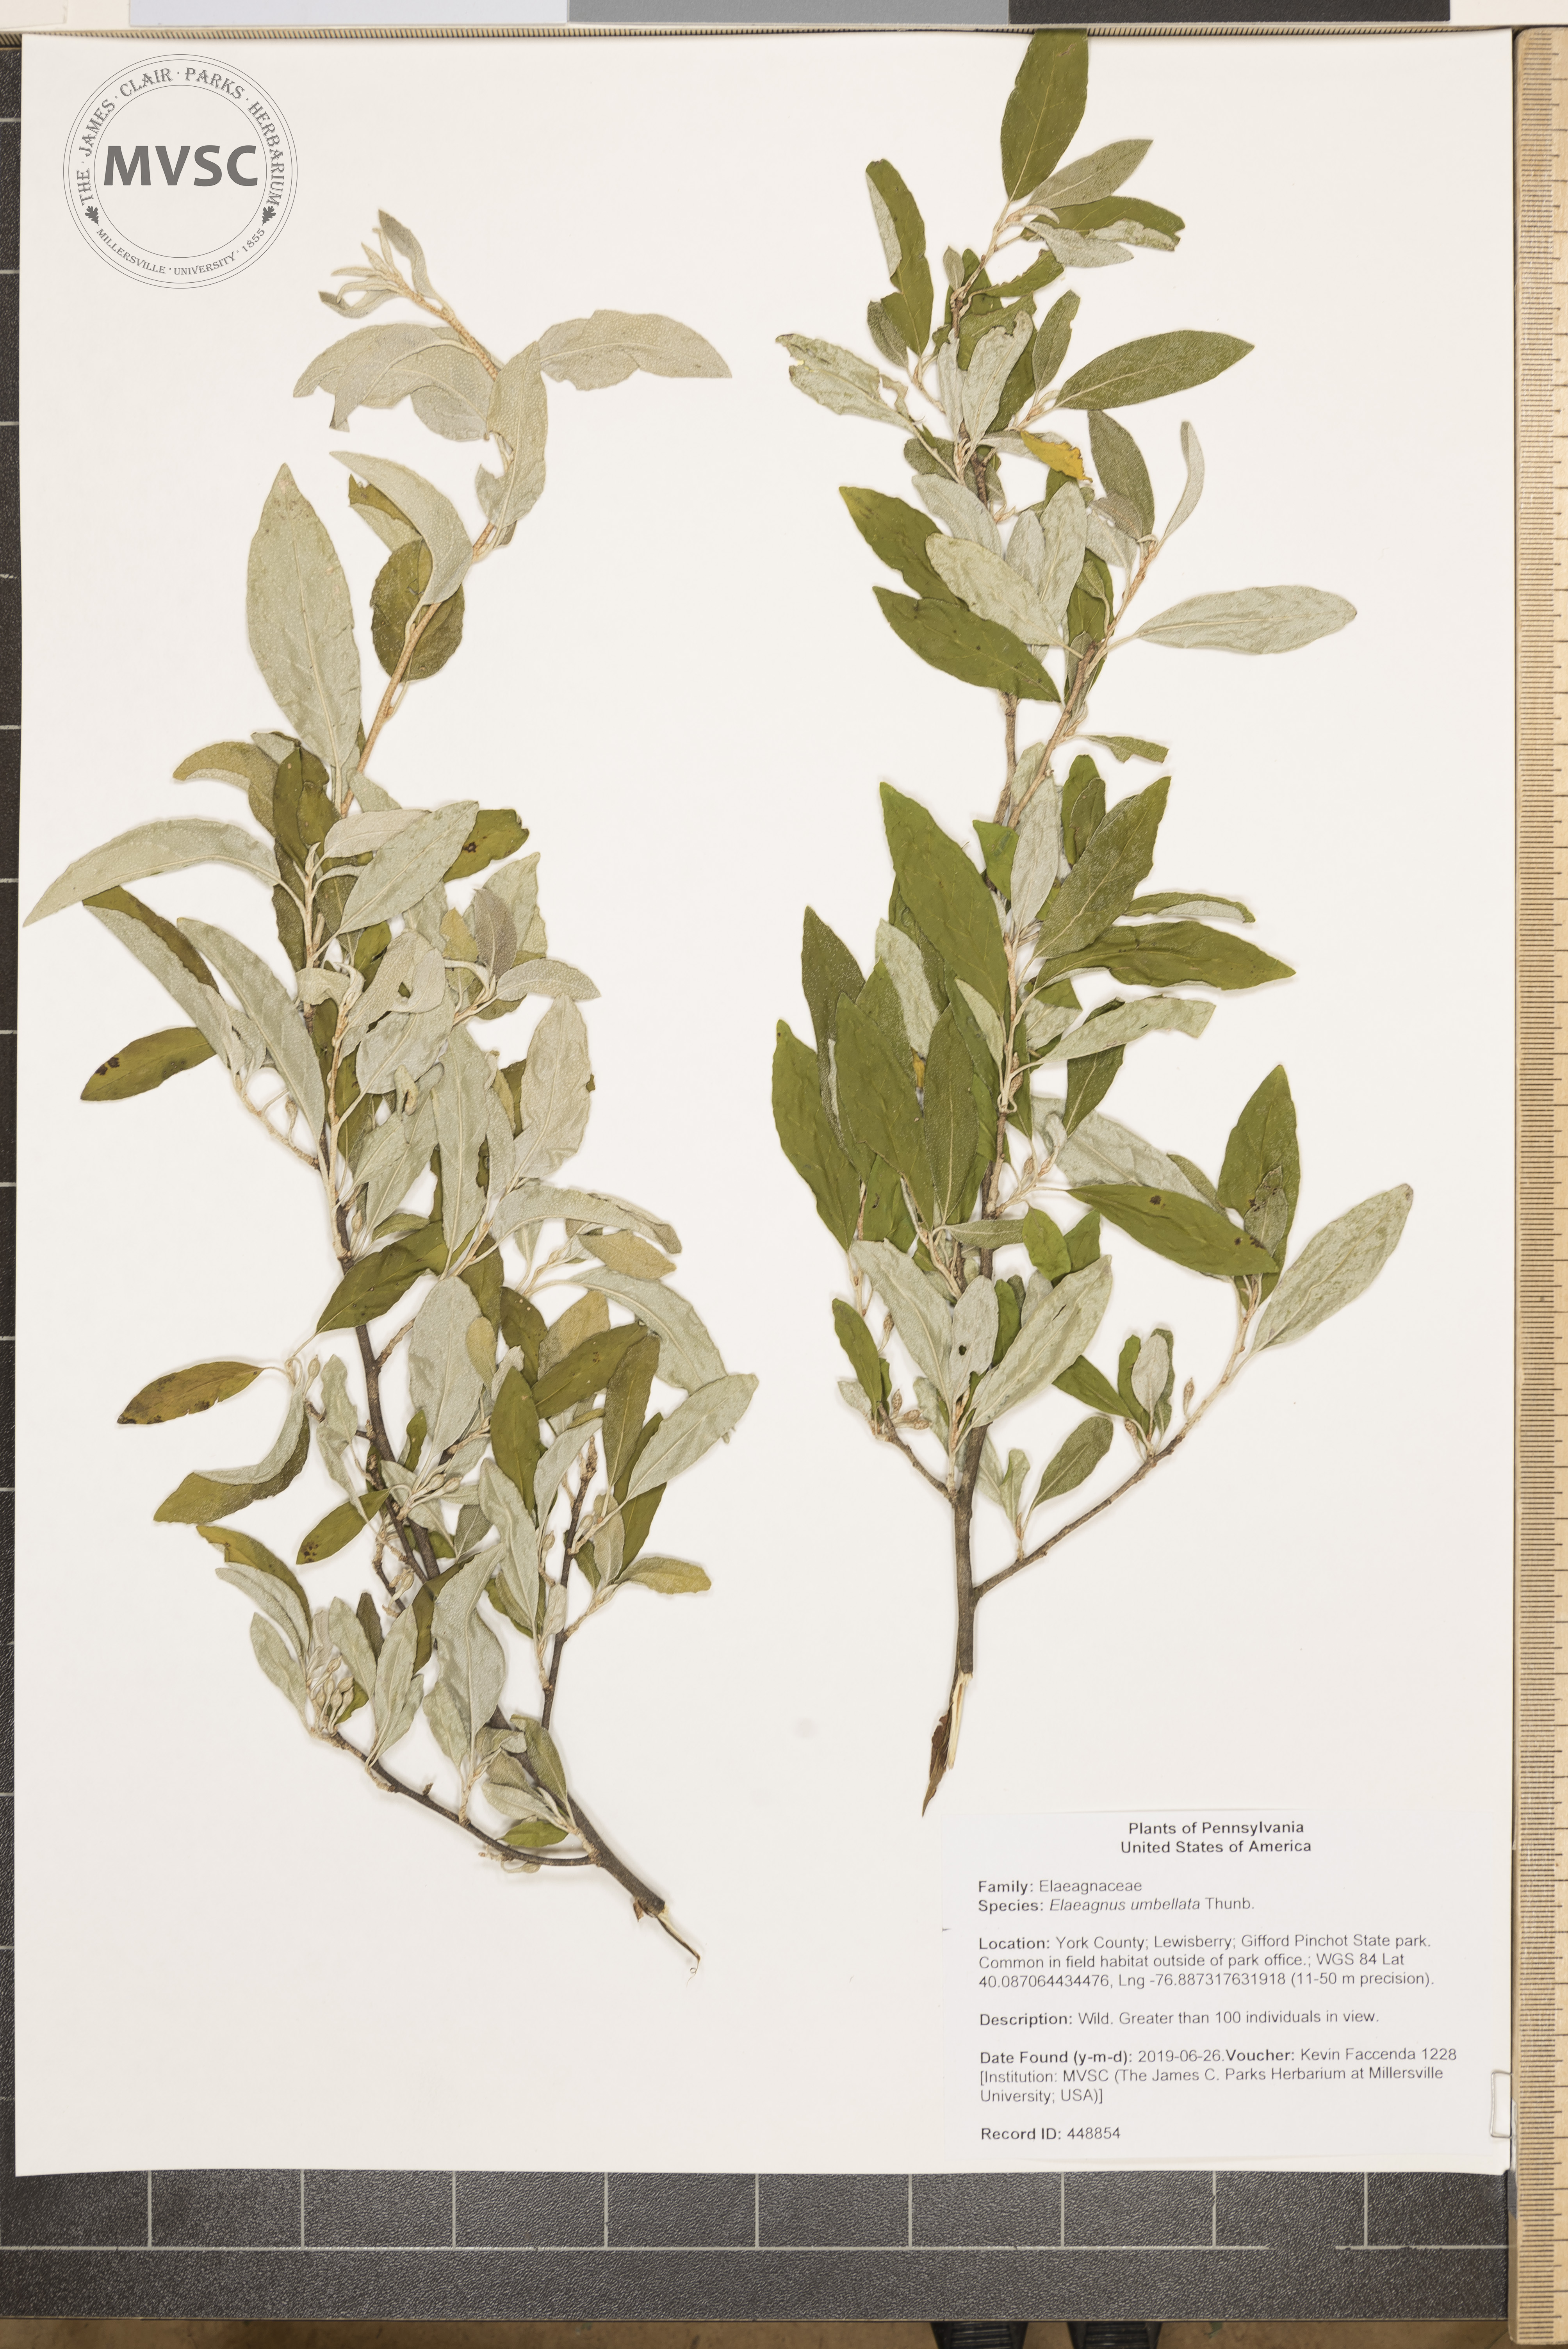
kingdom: Plantae
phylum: Tracheophyta
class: Magnoliopsida
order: Rosales
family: Elaeagnaceae
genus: Elaeagnus
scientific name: Elaeagnus umbellata
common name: Autumn olive
